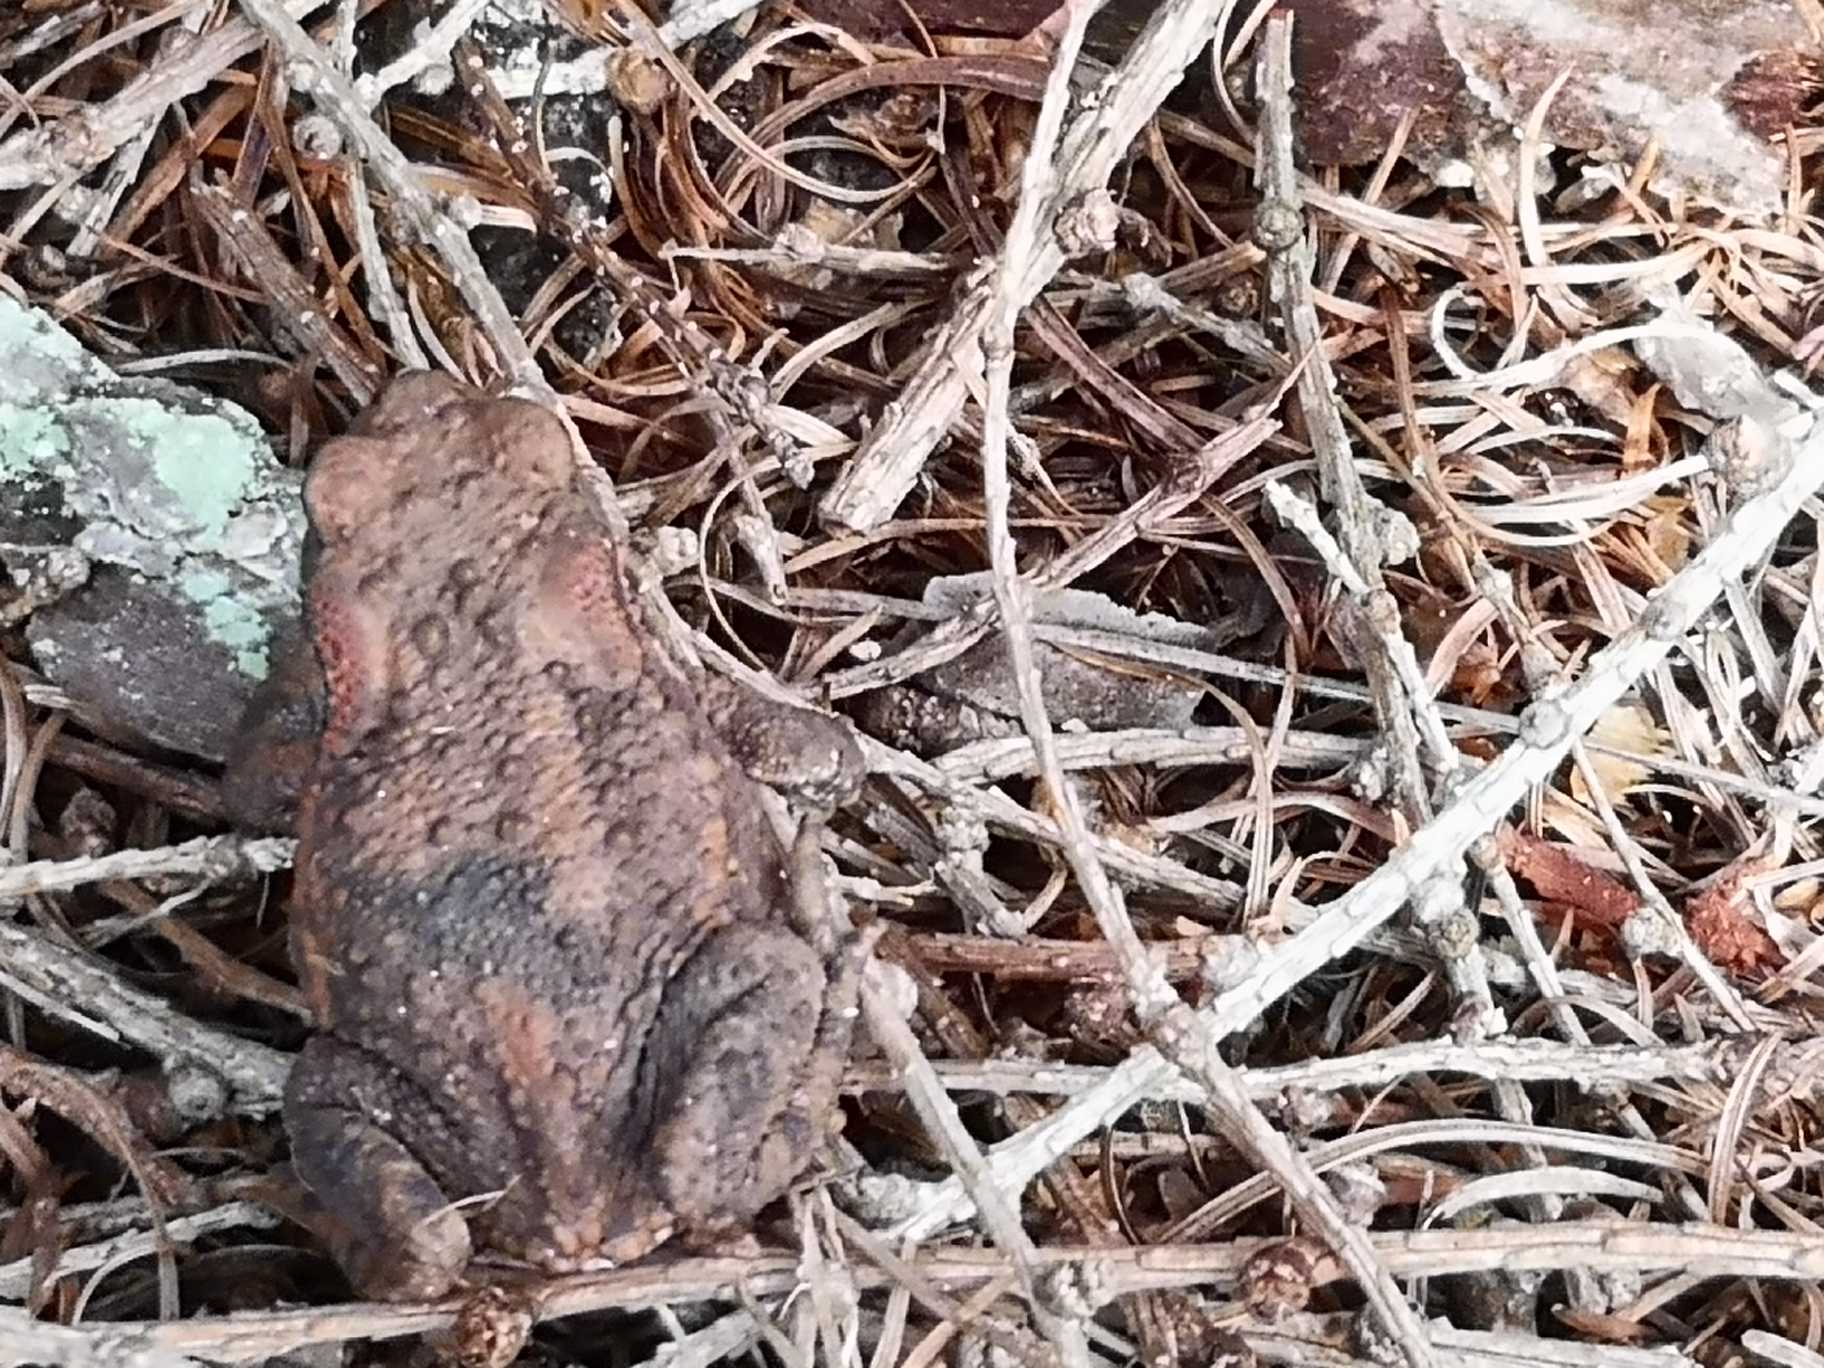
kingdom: Animalia
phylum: Chordata
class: Amphibia
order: Anura
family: Bufonidae
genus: Bufo
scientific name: Bufo bufo
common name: Skrubtudse
